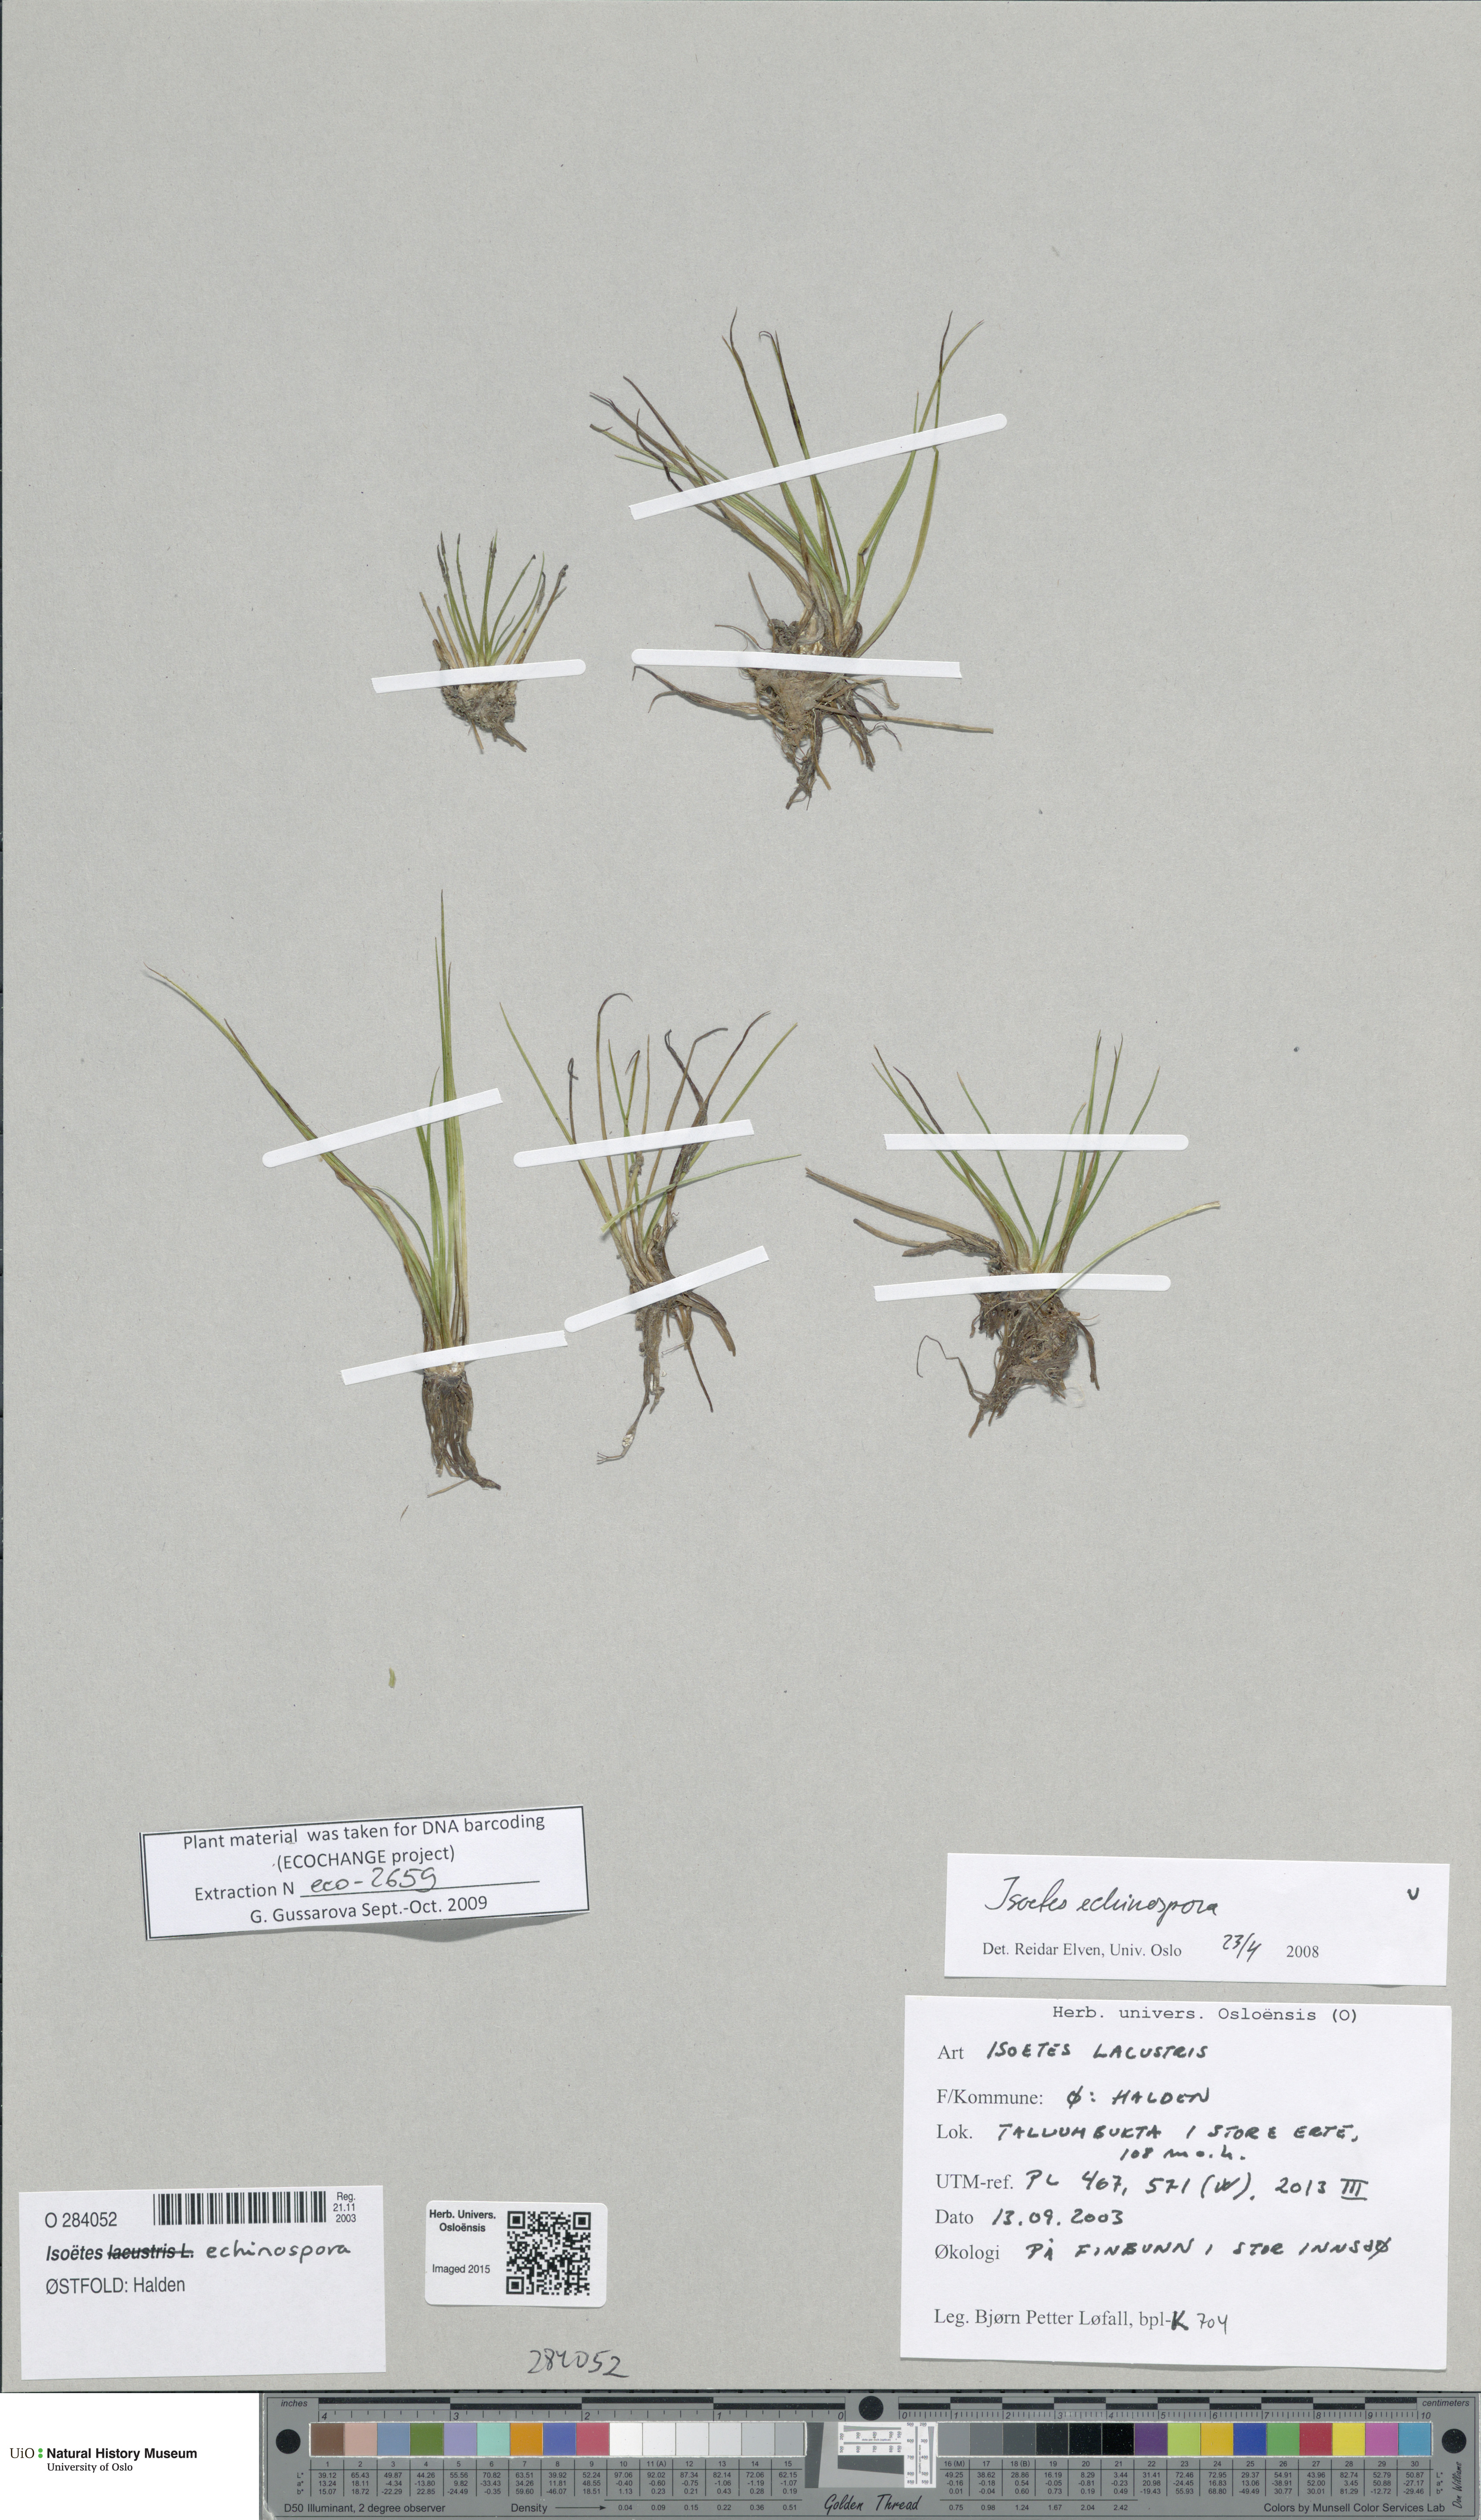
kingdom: Plantae
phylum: Tracheophyta
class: Lycopodiopsida
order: Isoetales
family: Isoetaceae
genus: Isoetes
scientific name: Isoetes echinospora
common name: Spring quillwort
